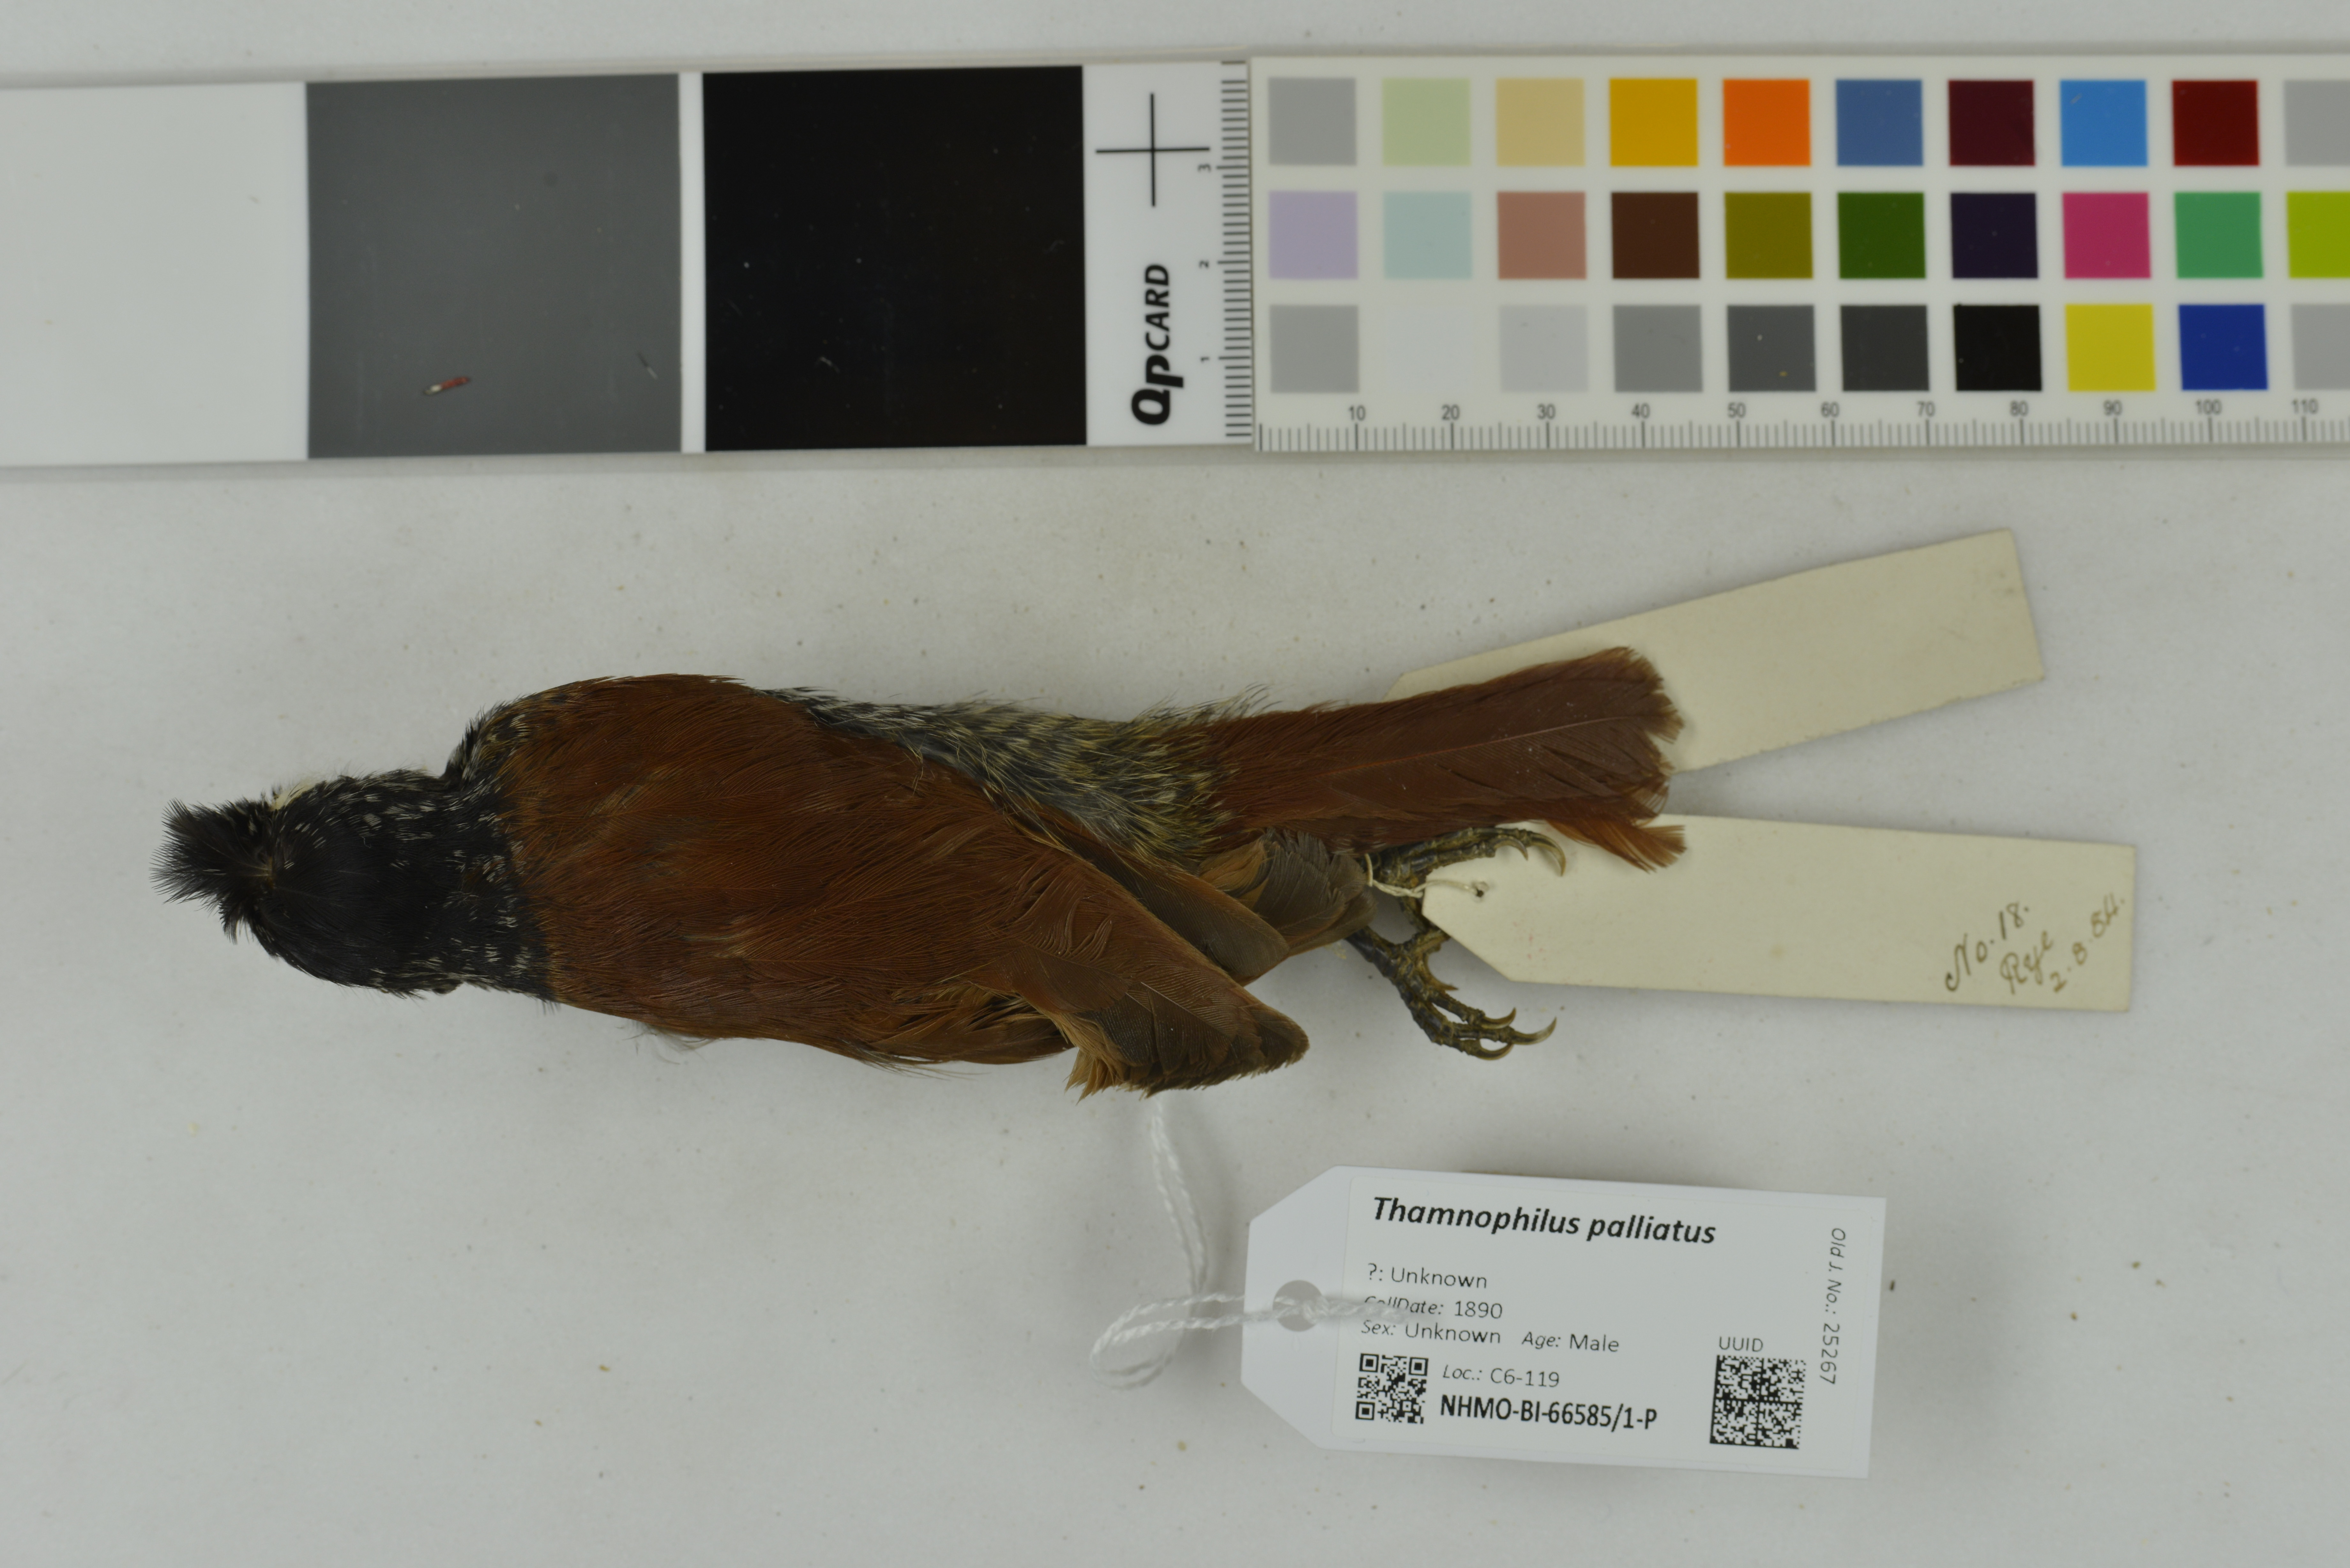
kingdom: Animalia
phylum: Chordata
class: Aves
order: Passeriformes
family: Thamnophilidae
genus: Thamnophilus
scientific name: Thamnophilus palliatus
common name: Chestnut-backed antshrike
